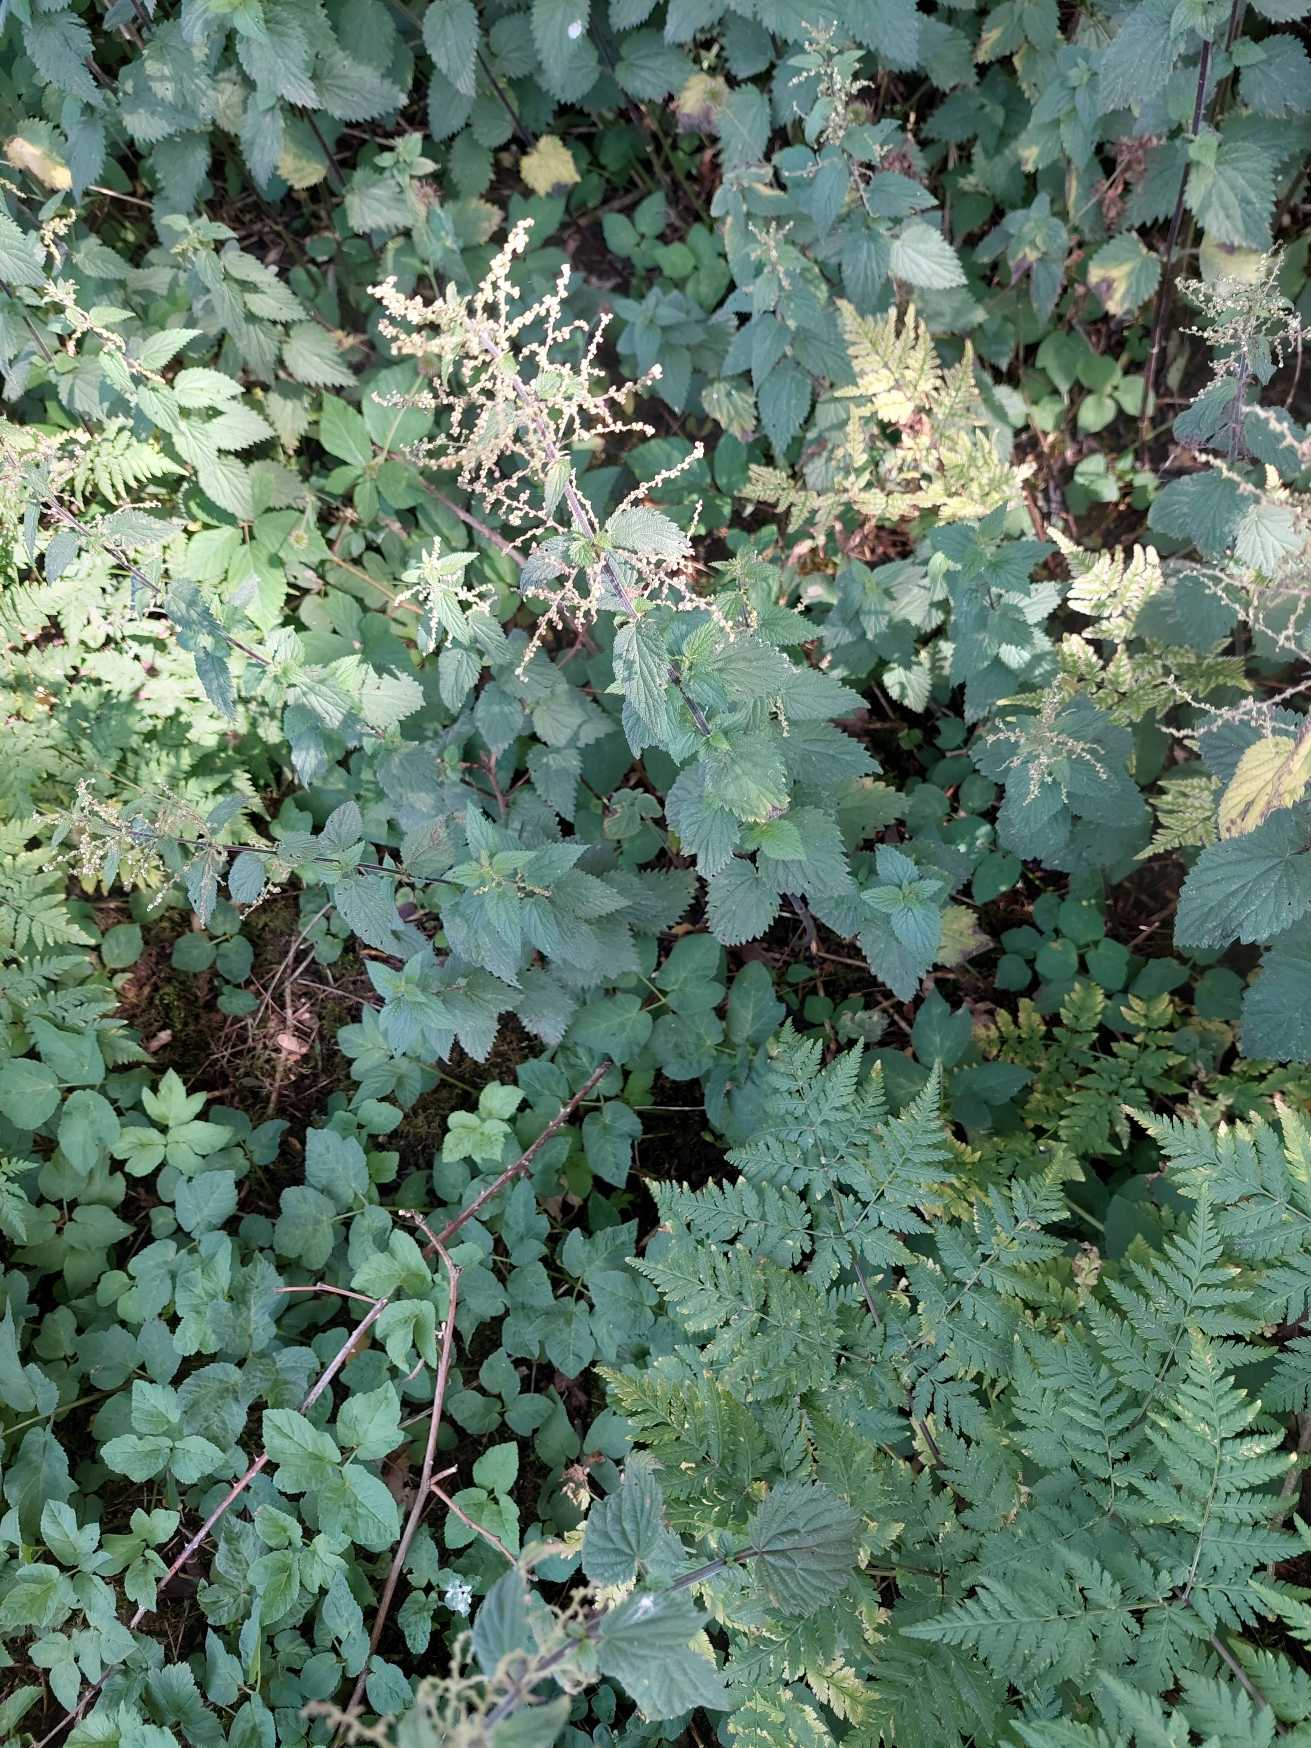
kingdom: Plantae
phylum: Tracheophyta
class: Magnoliopsida
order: Rosales
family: Urticaceae
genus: Urtica
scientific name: Urtica dioica
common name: Stor nælde
